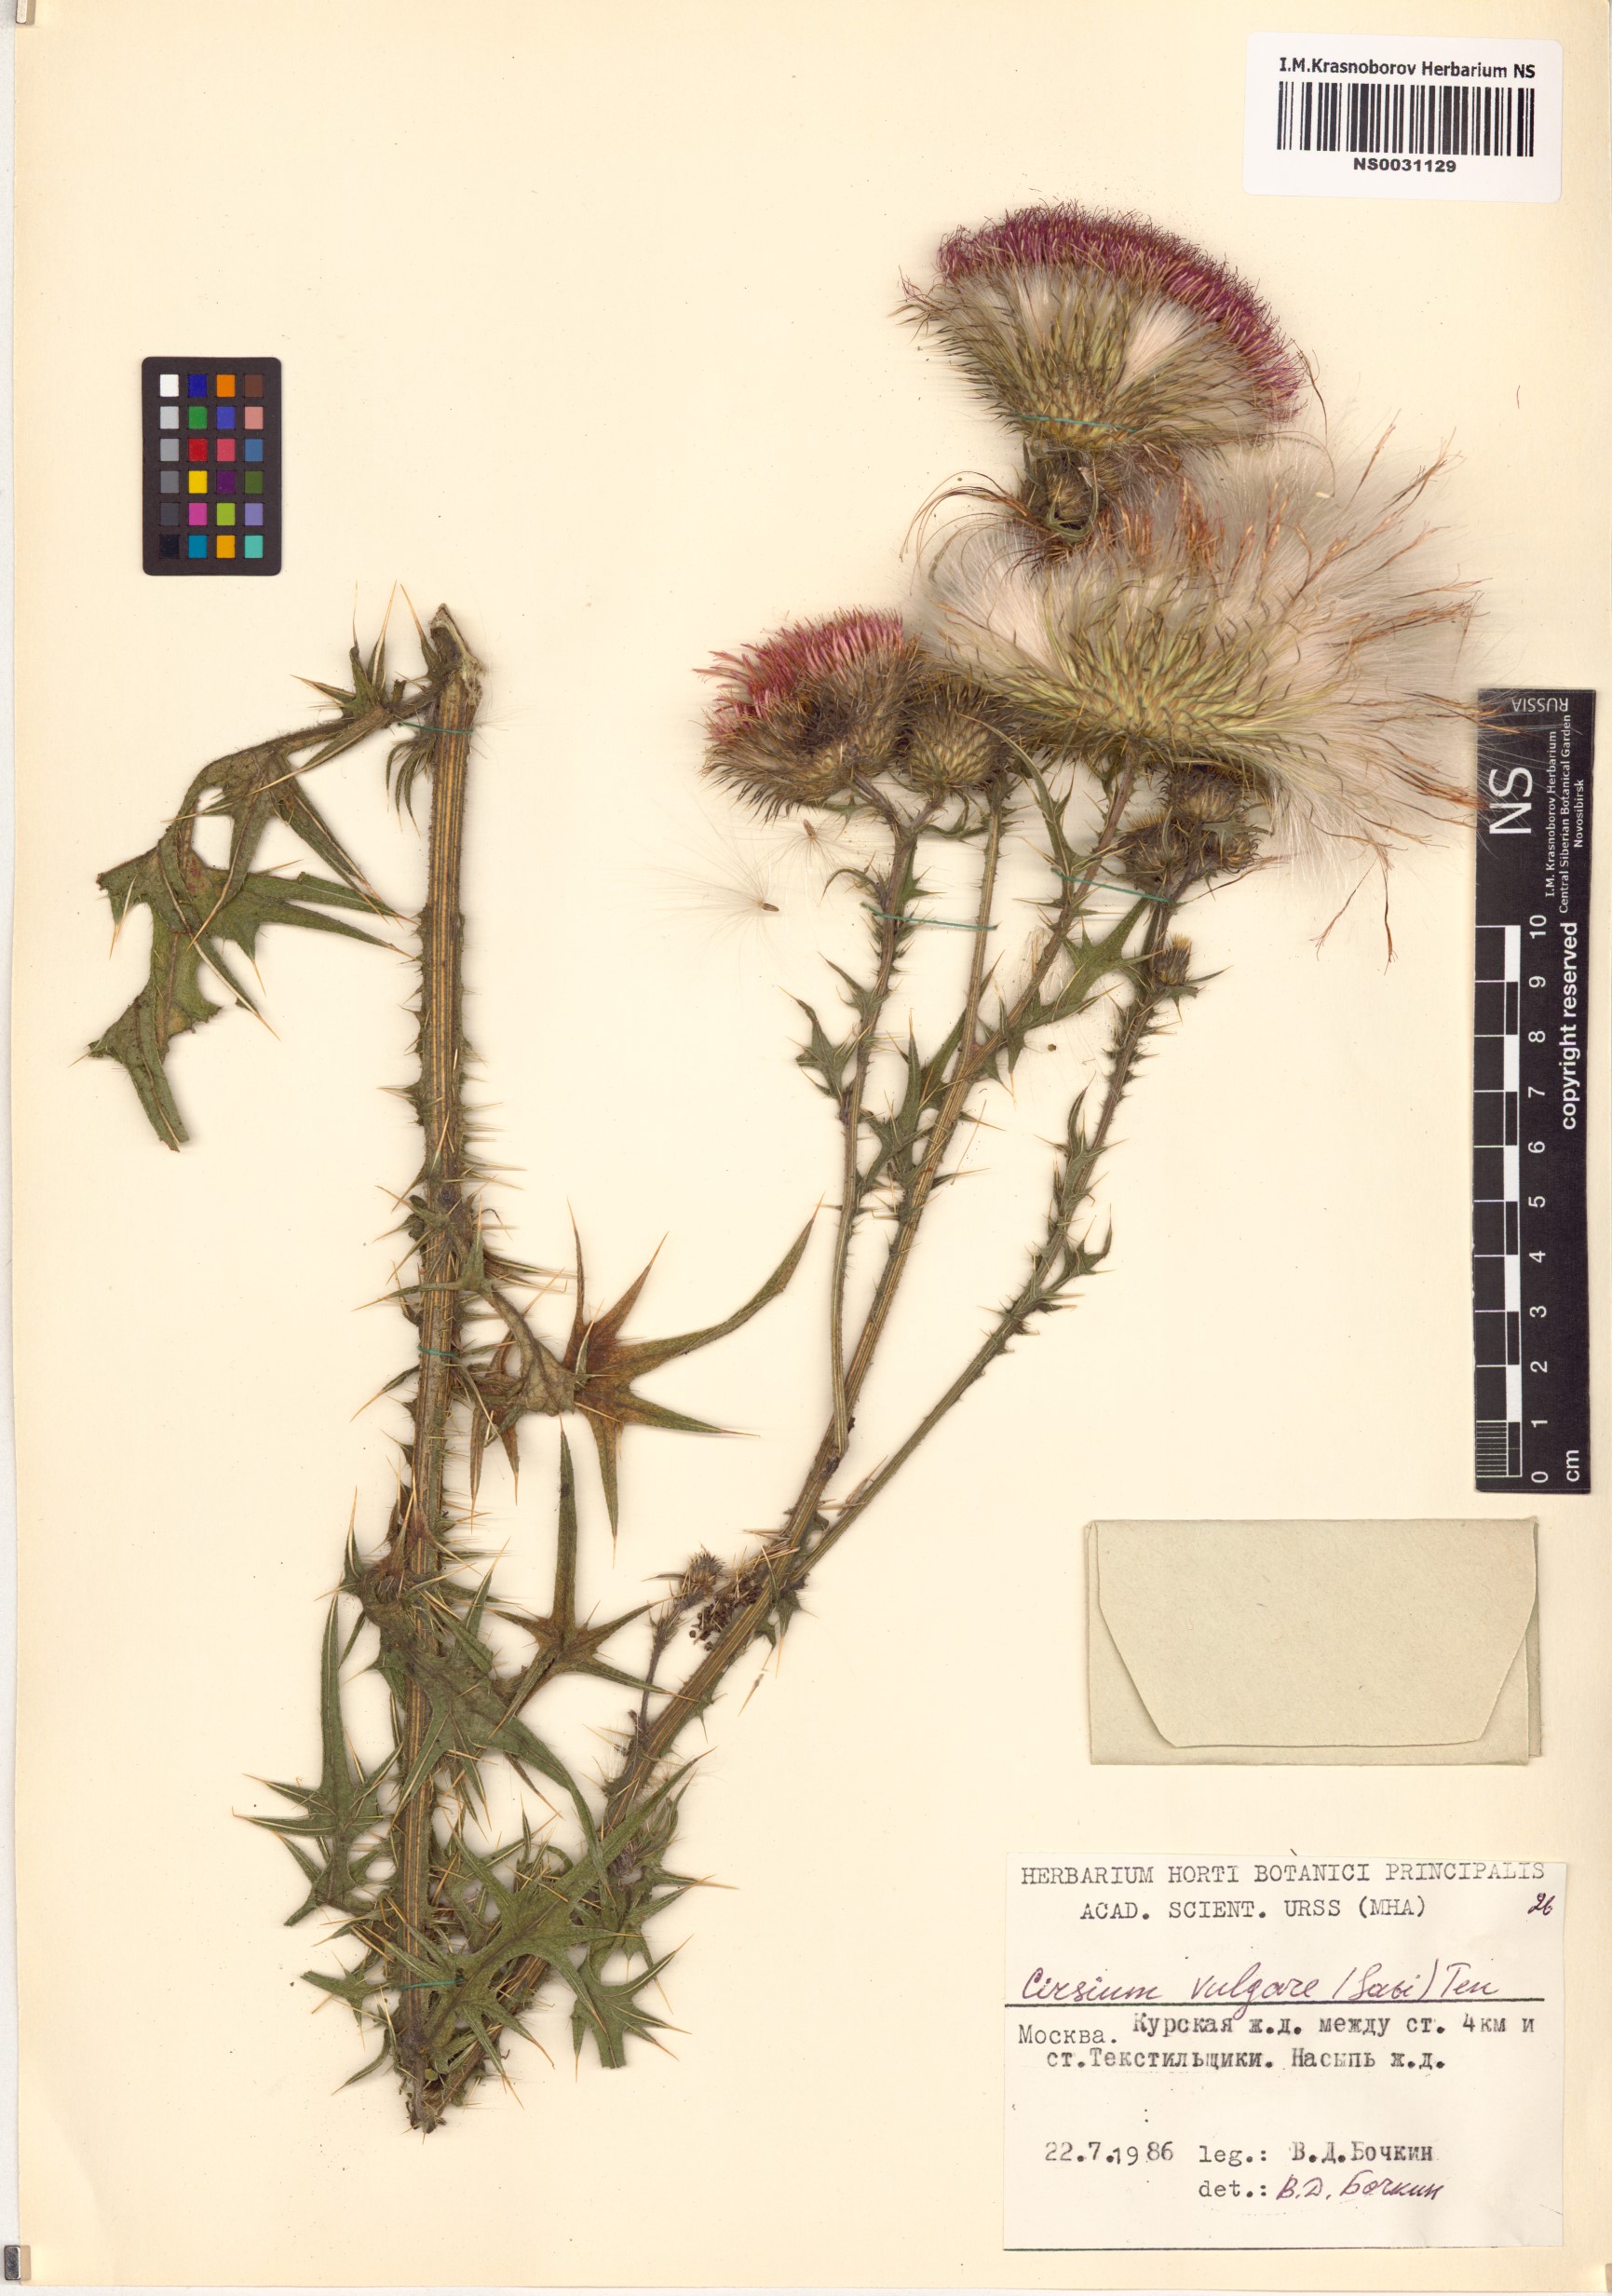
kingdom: Plantae
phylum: Tracheophyta
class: Magnoliopsida
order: Asterales
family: Asteraceae
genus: Cirsium
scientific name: Cirsium vulgare
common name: Bull thistle
